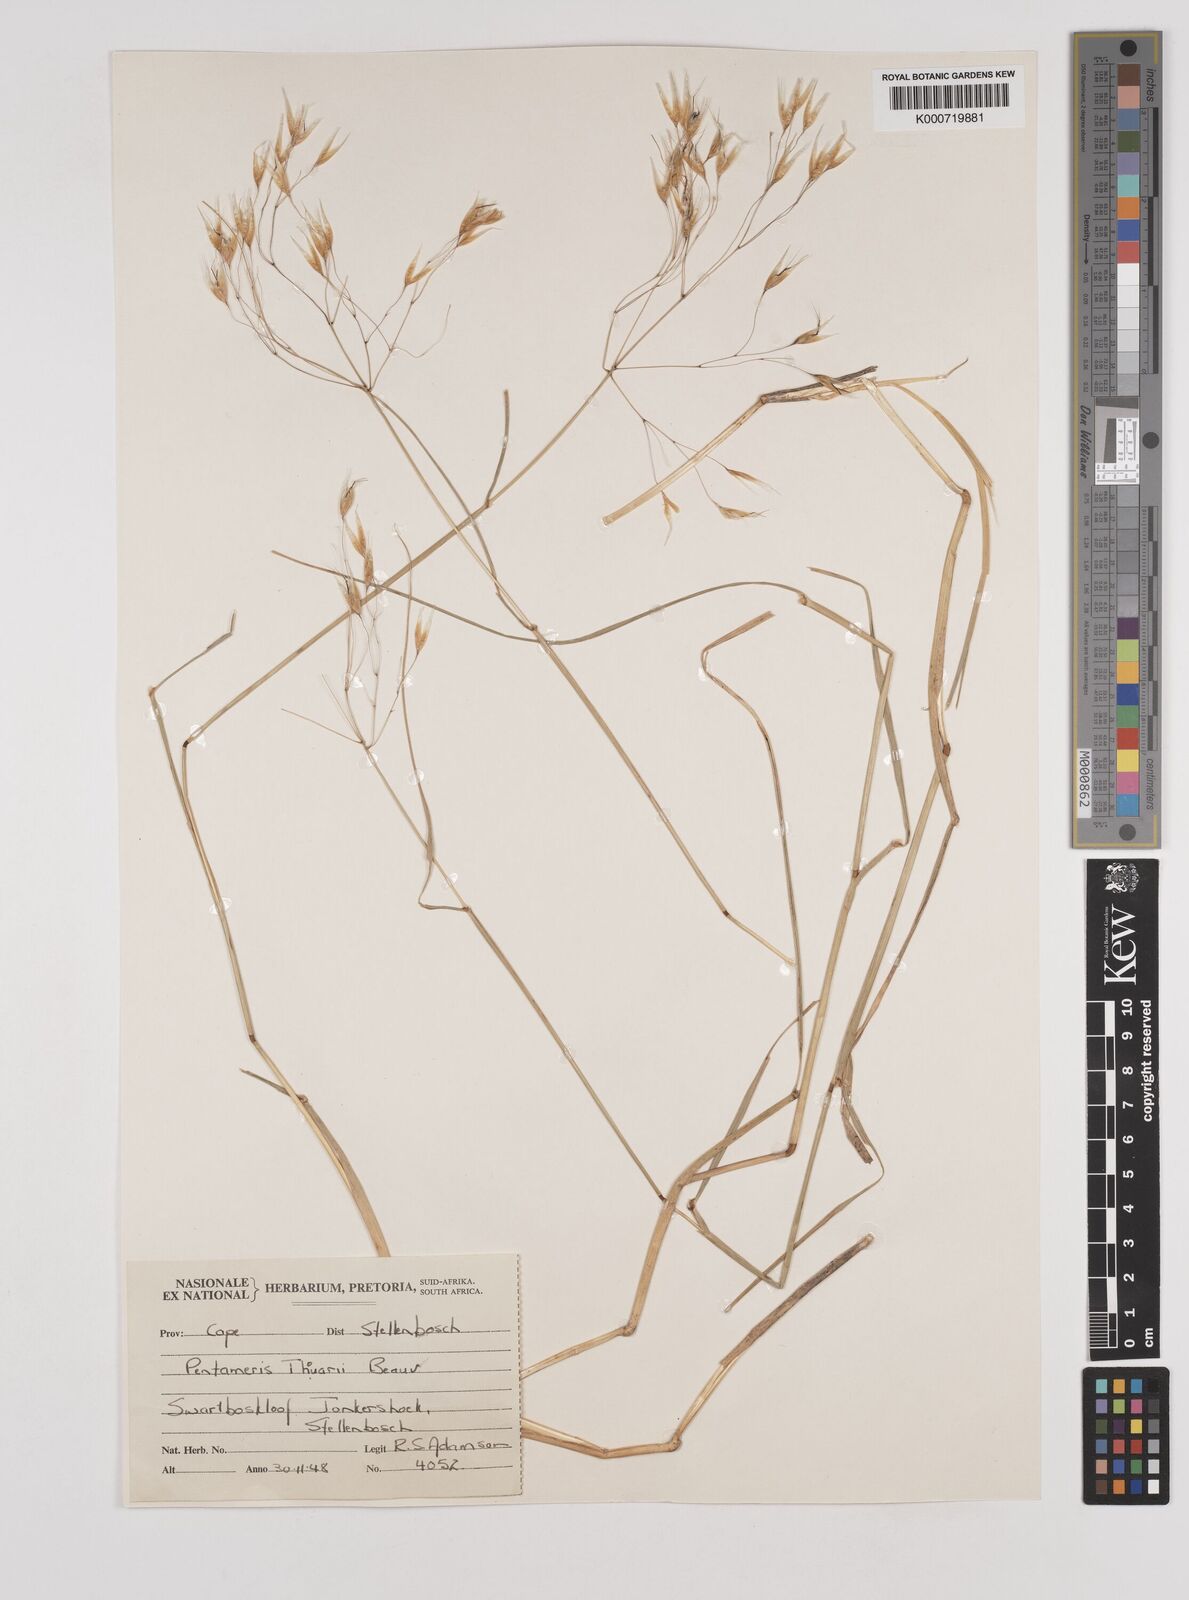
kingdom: Plantae
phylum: Tracheophyta
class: Liliopsida
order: Poales
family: Poaceae
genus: Pentameris
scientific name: Pentameris thuarii
